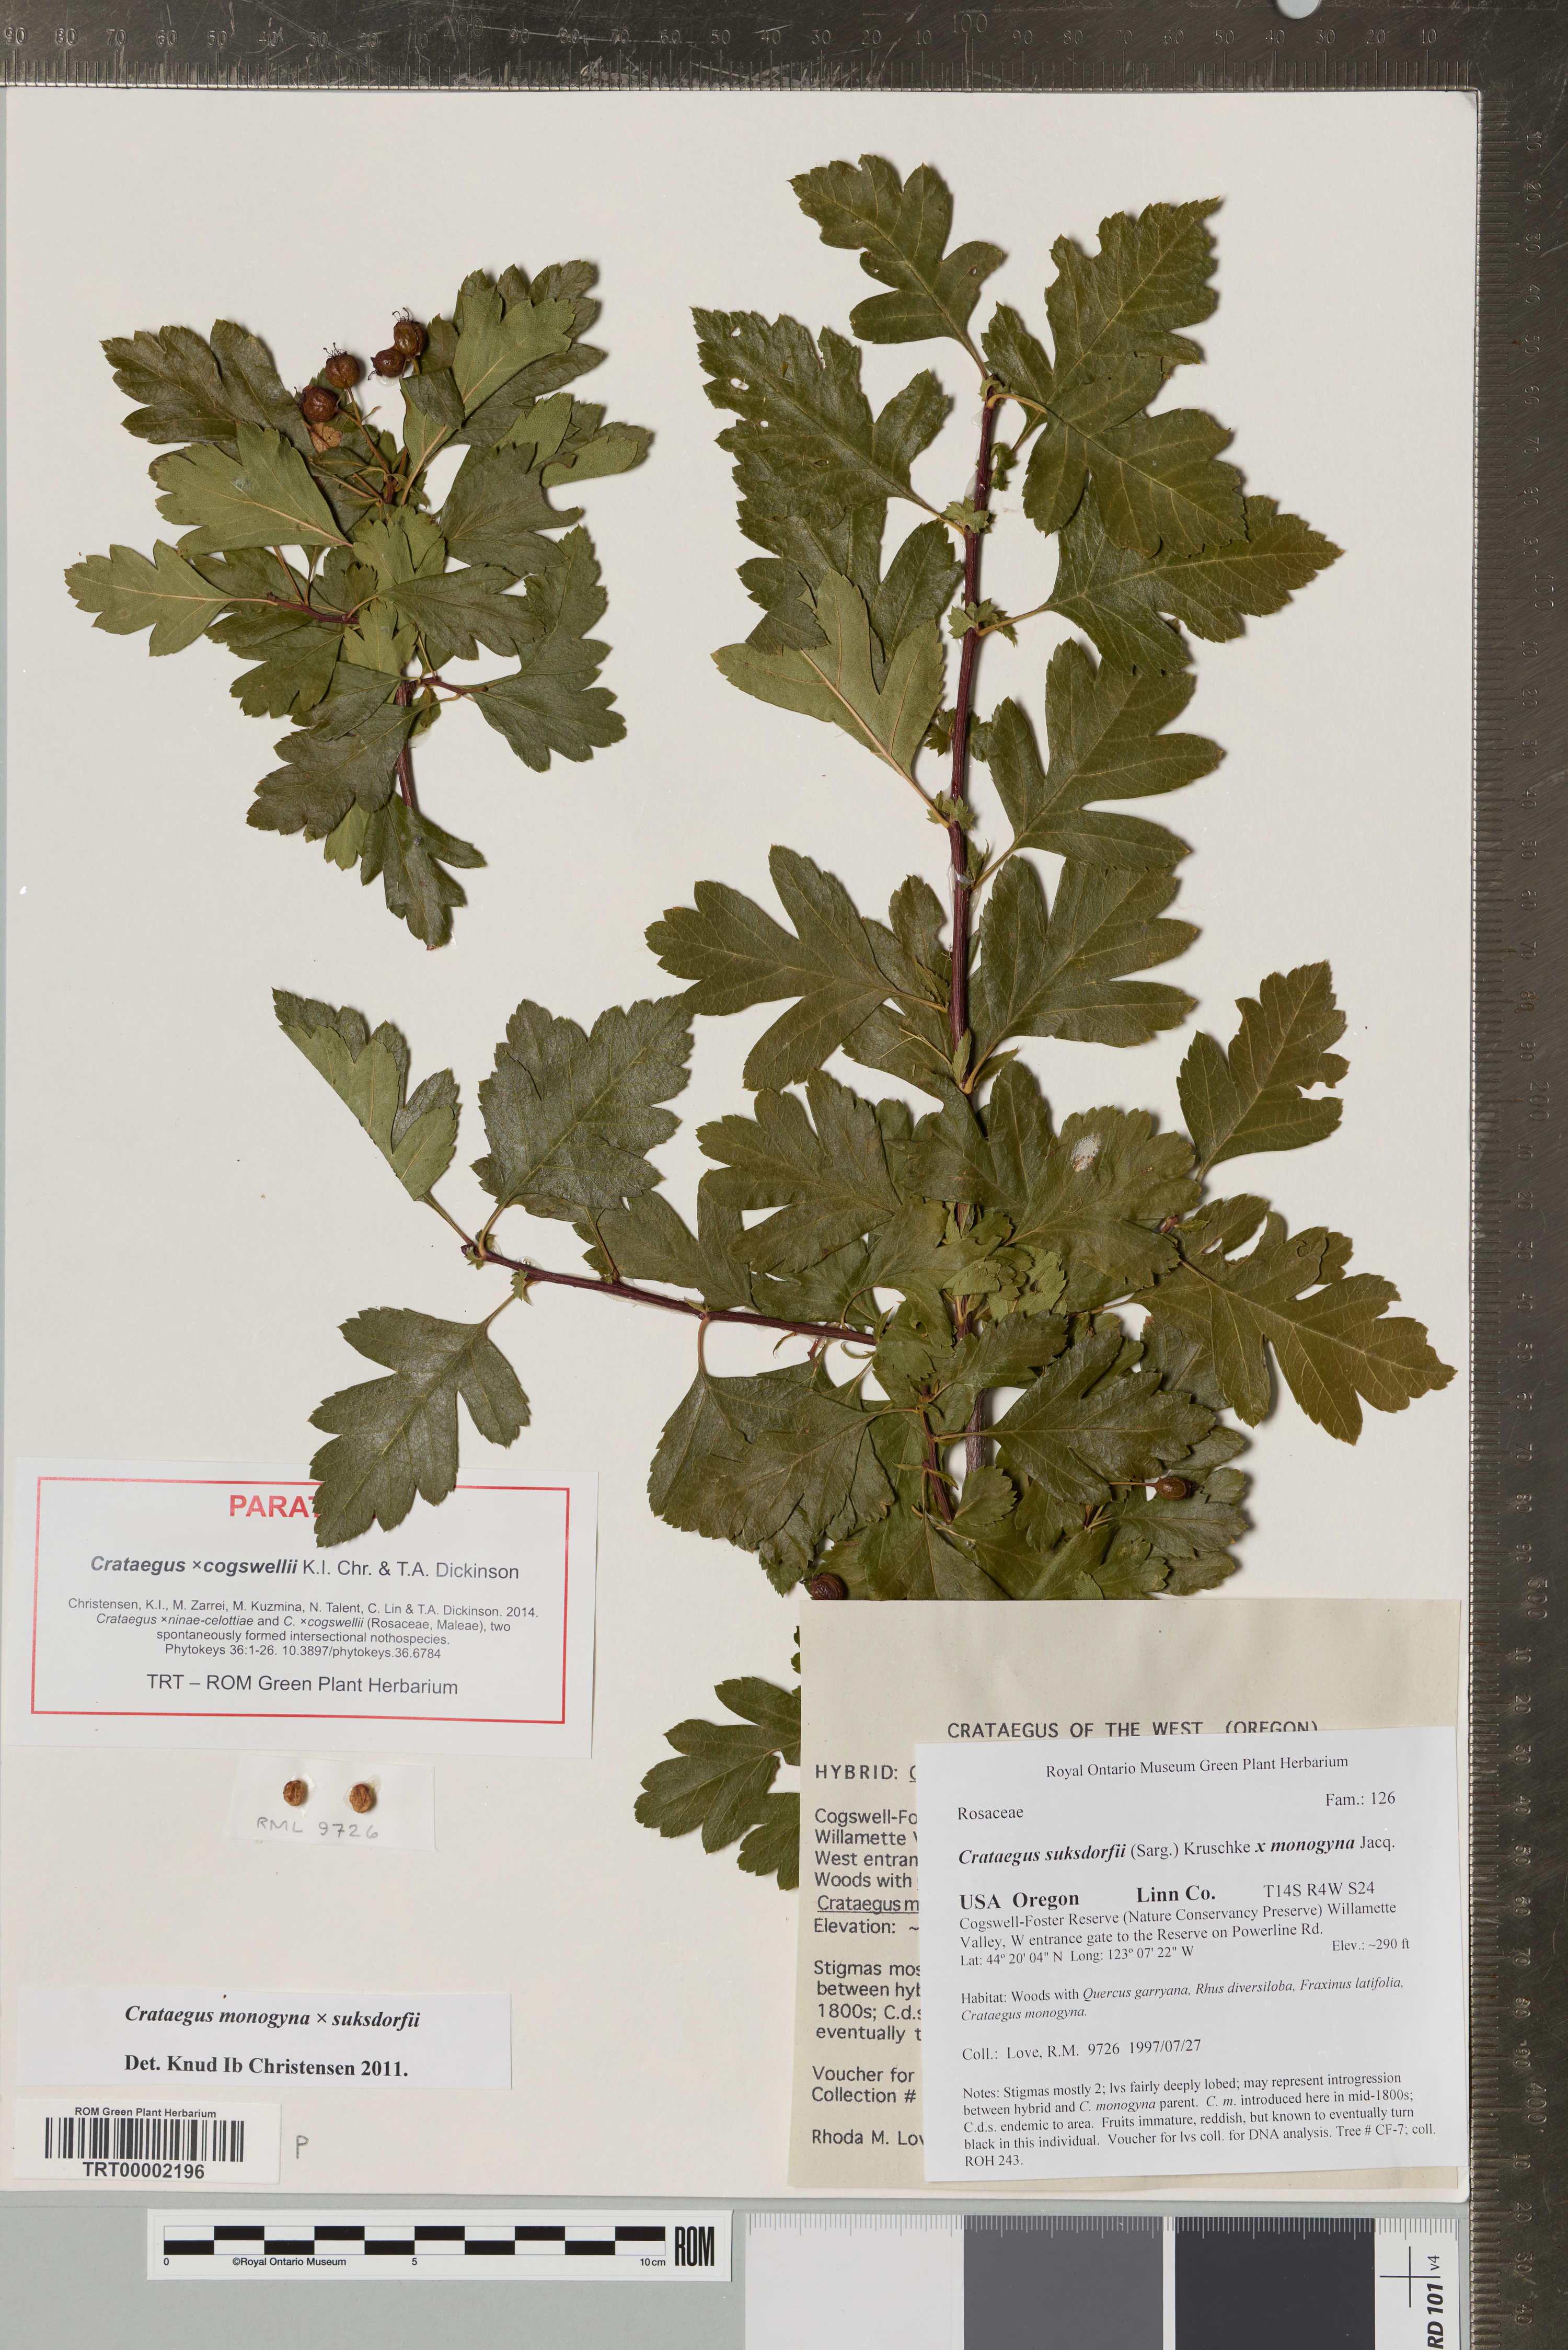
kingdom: Plantae
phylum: Tracheophyta
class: Magnoliopsida
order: Rosales
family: Rosaceae
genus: Crataegus
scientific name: Crataegus
